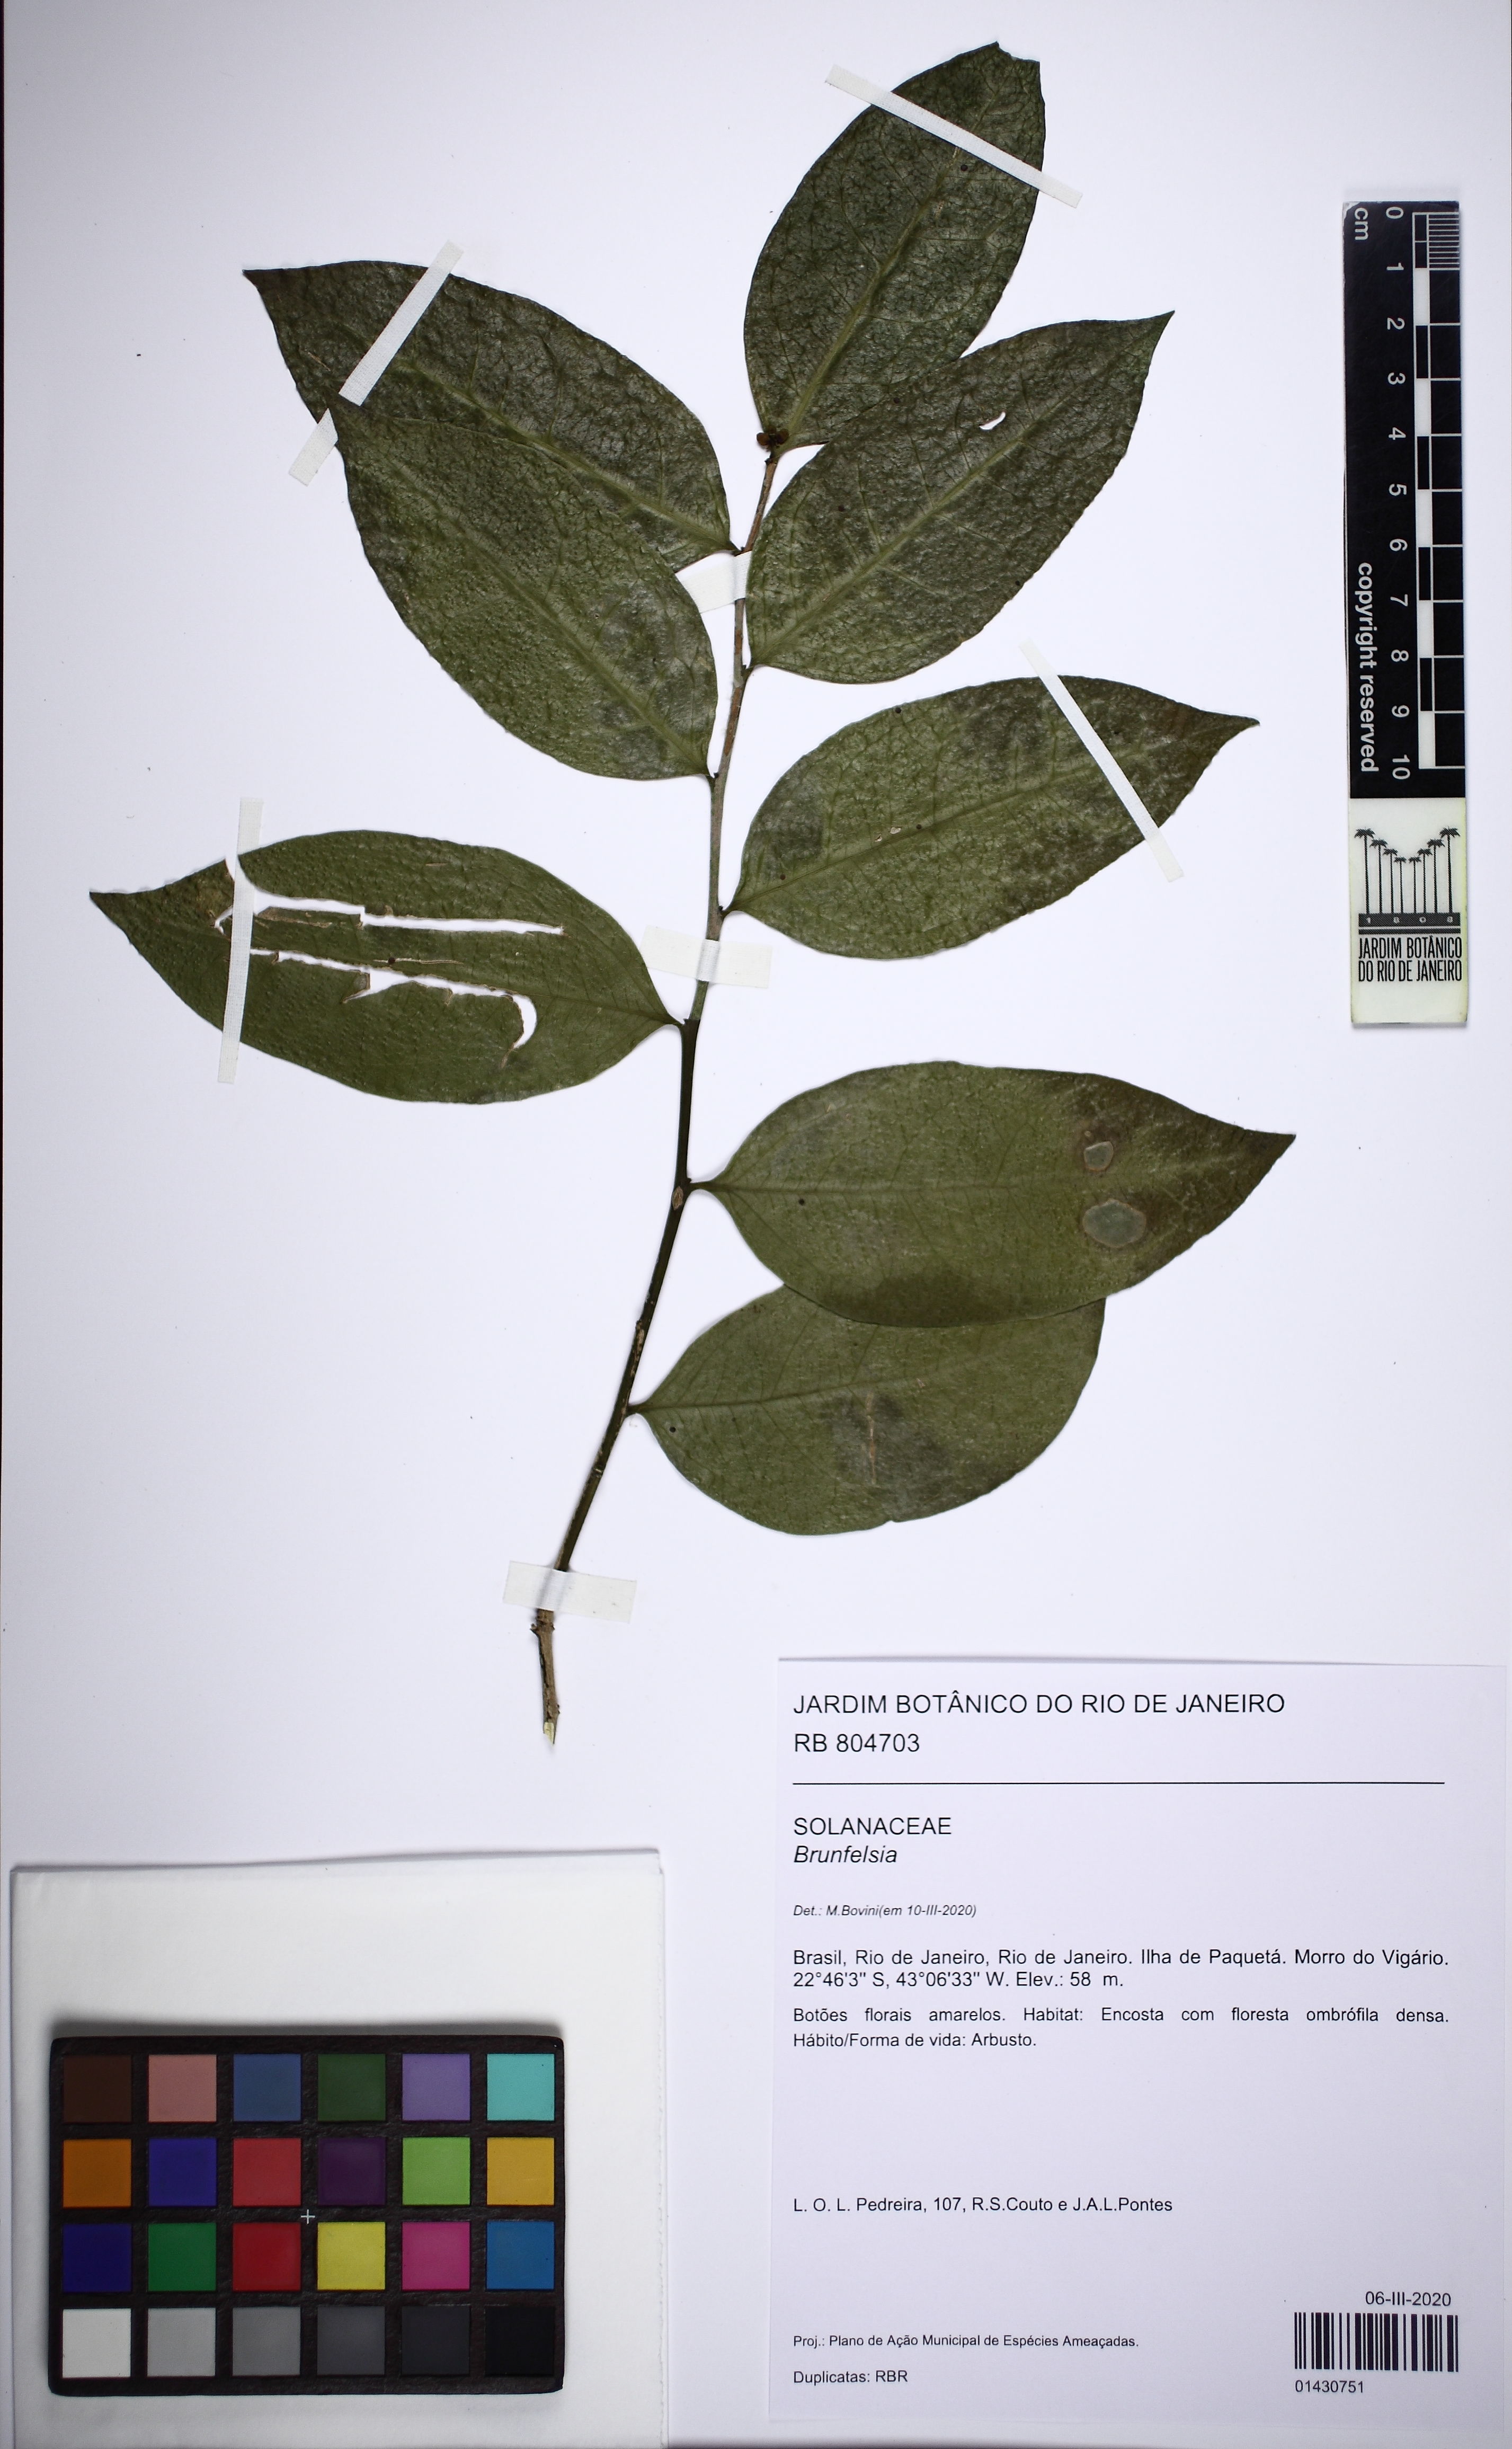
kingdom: Plantae
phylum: Tracheophyta
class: Magnoliopsida
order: Solanales
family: Solanaceae
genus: Brunfelsia
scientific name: Brunfelsia
